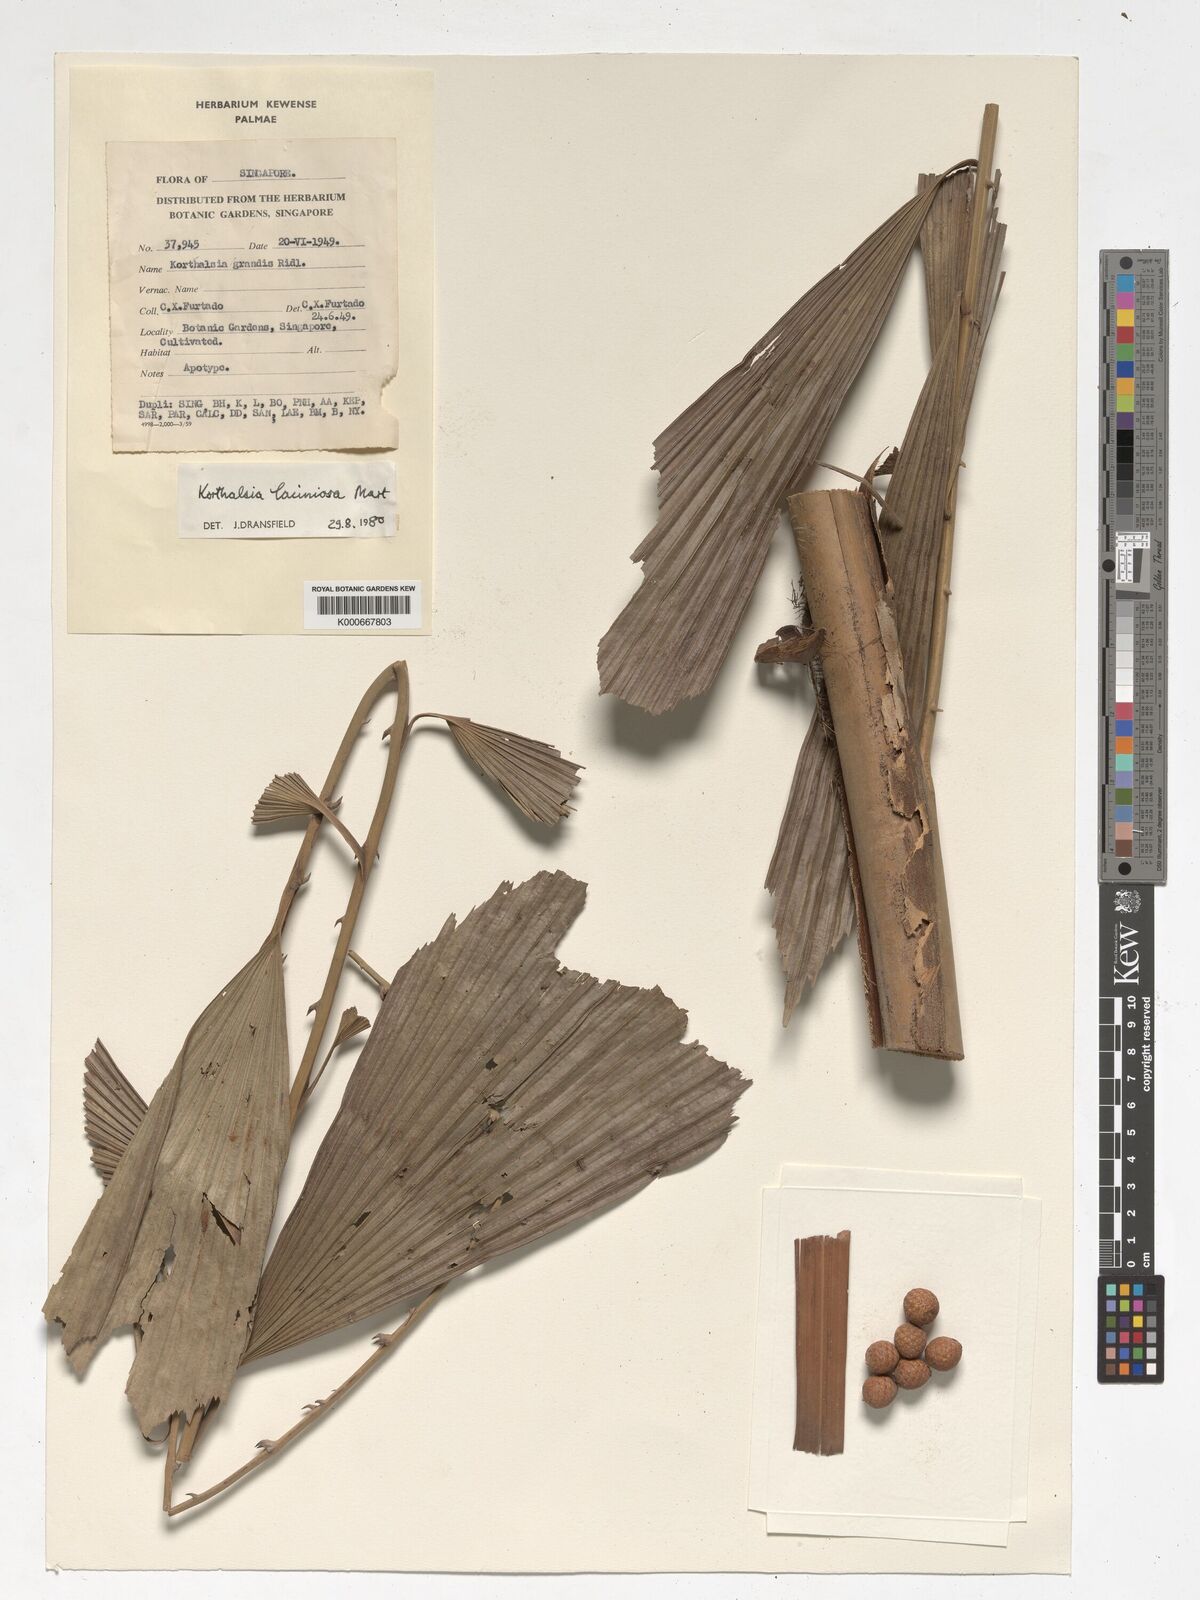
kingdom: Plantae
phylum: Tracheophyta
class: Liliopsida
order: Arecales
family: Arecaceae
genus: Korthalsia
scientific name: Korthalsia laciniosa
